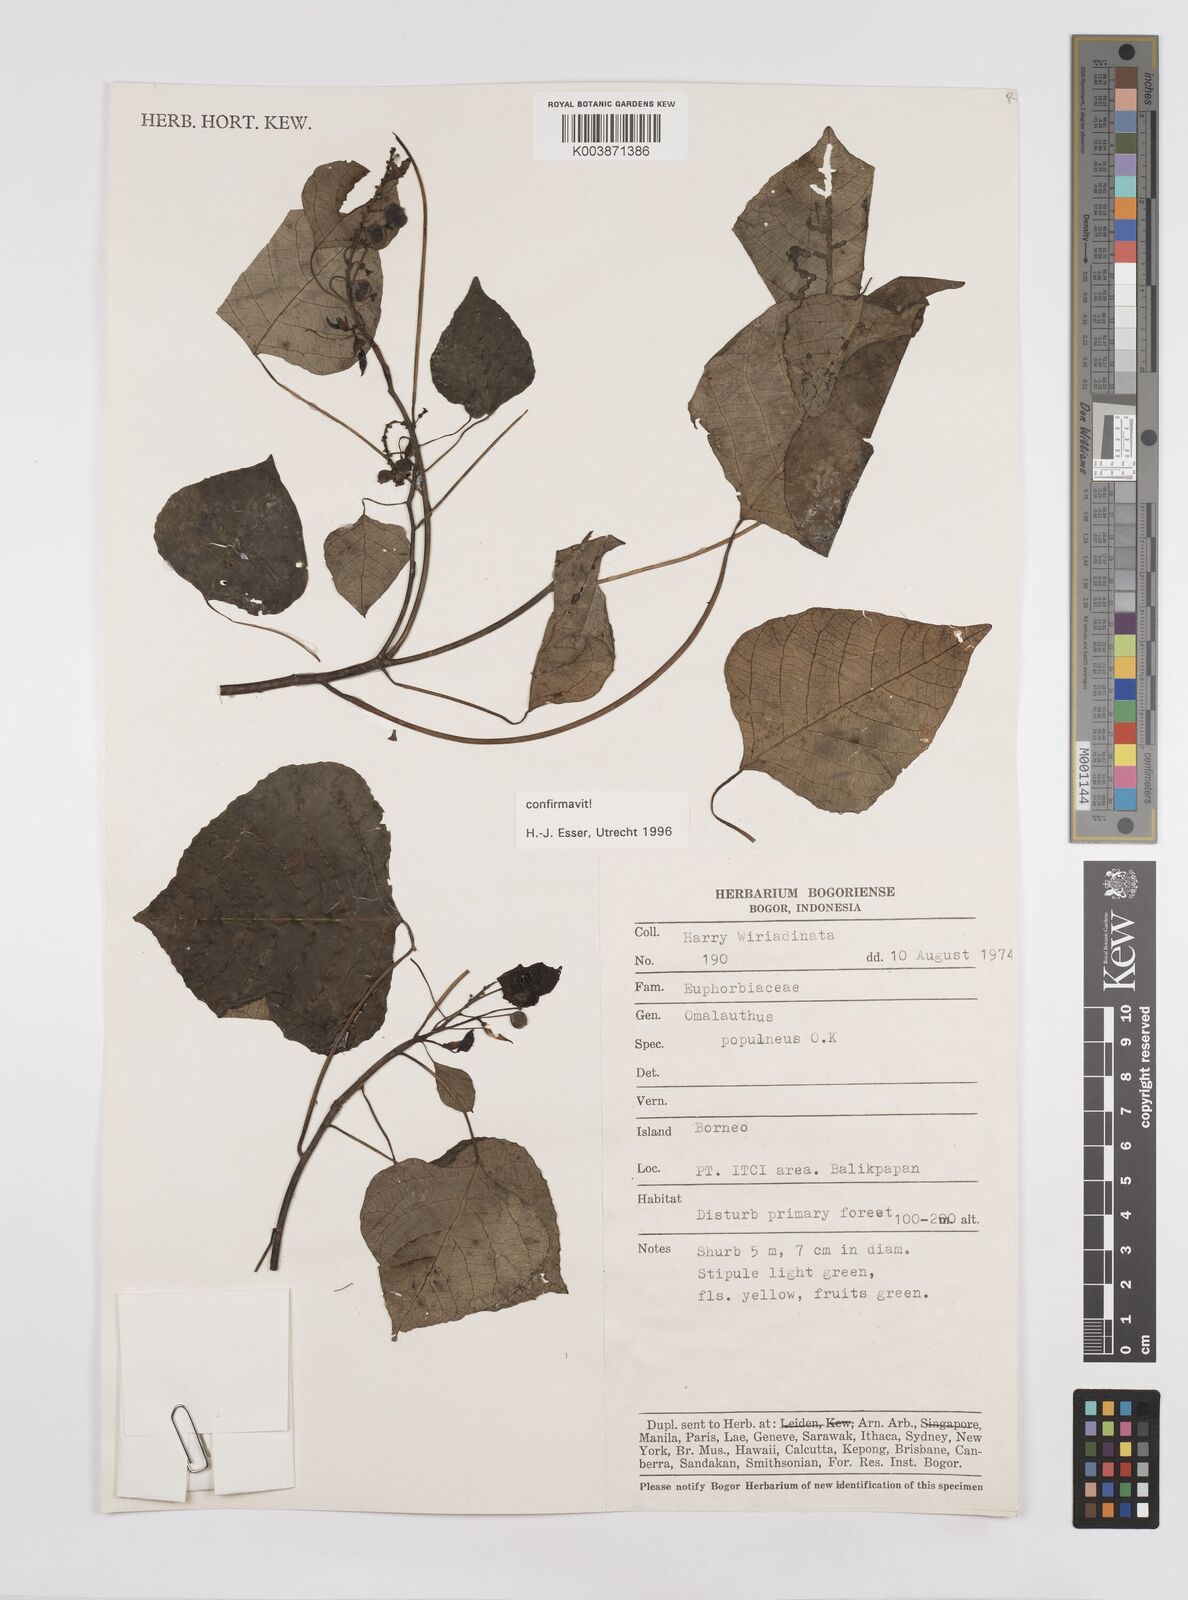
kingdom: Plantae
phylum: Tracheophyta
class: Magnoliopsida
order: Malpighiales
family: Euphorbiaceae
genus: Homalanthus
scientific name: Homalanthus populneus
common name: Spurge
